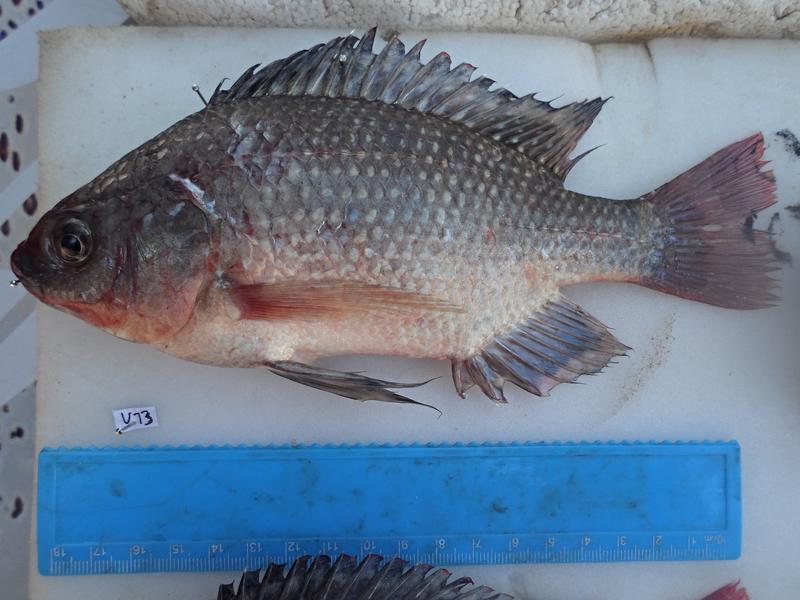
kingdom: Animalia
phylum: Chordata
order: Perciformes
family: Cichlidae
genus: Oreochromis
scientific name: Oreochromis esculentus
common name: Carp
